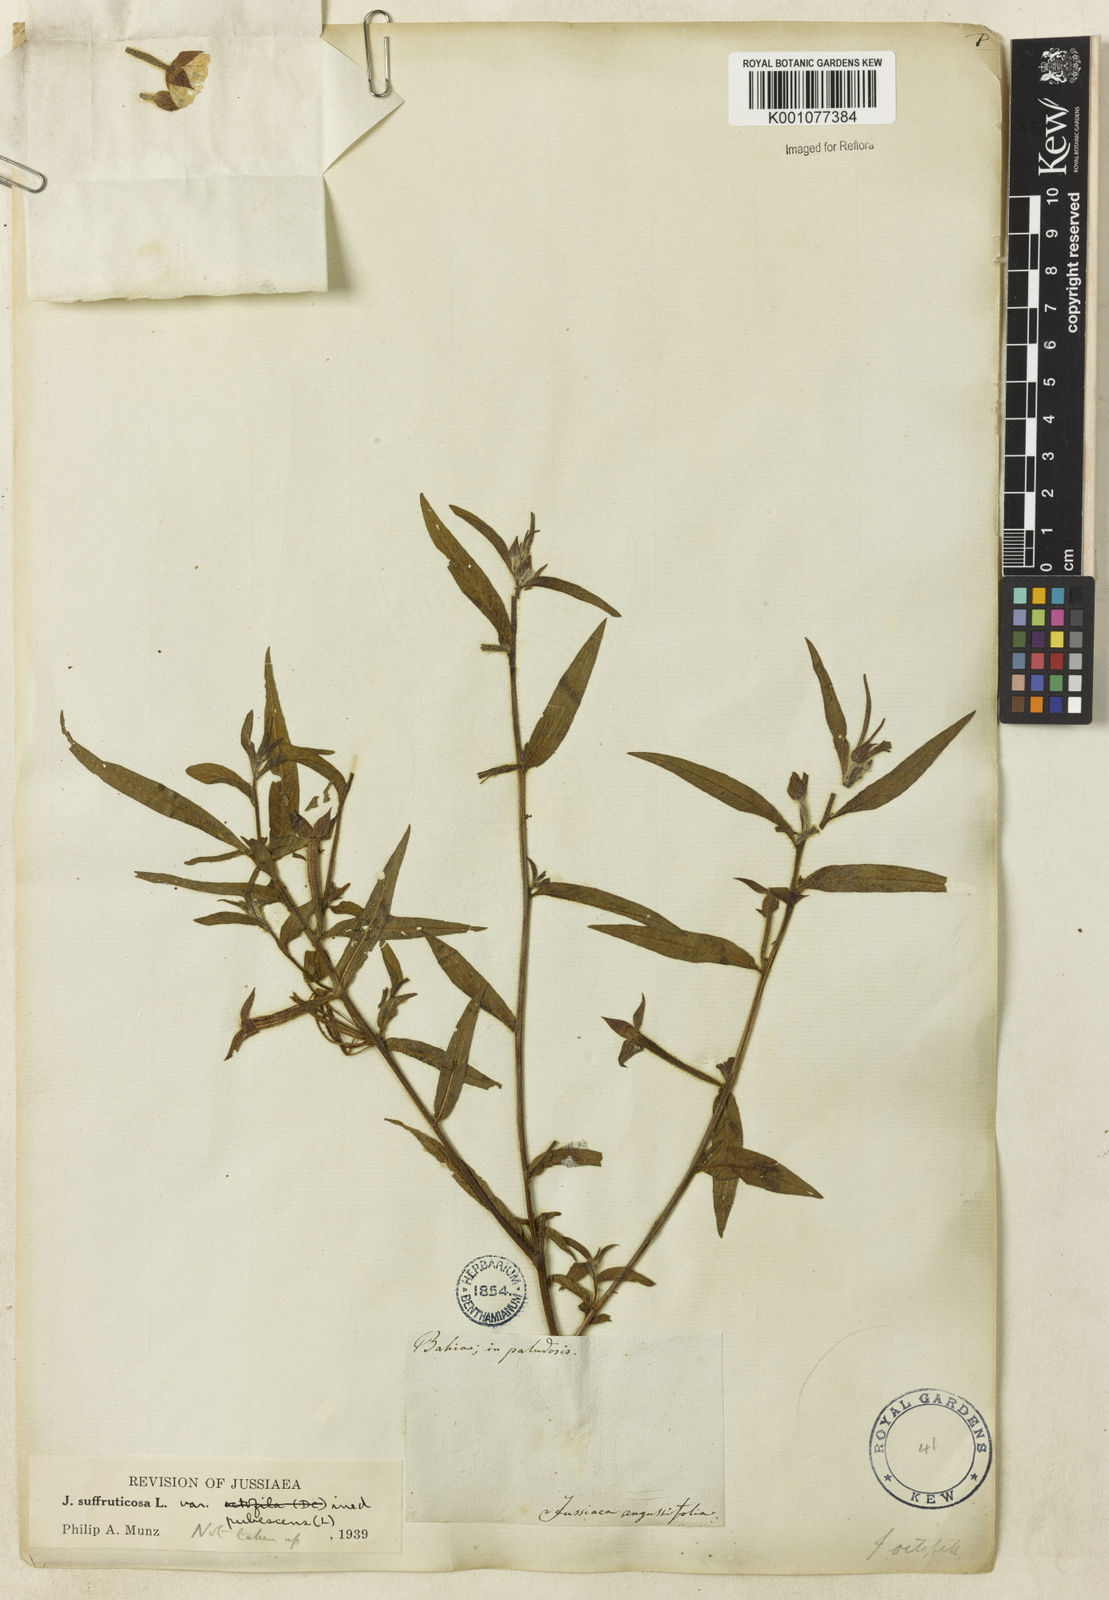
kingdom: Plantae
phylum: Tracheophyta
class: Magnoliopsida
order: Myrtales
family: Onagraceae
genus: Ludwigia
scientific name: Ludwigia octovalvis
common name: Water-primrose
